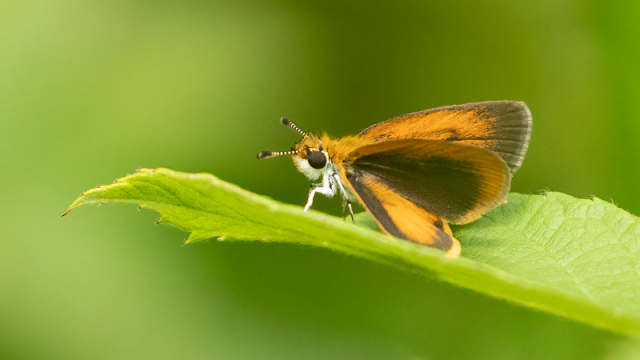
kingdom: Animalia
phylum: Arthropoda
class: Insecta
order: Lepidoptera
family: Hesperiidae
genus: Ancyloxypha
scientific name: Ancyloxypha numitor
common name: Least Skipper
